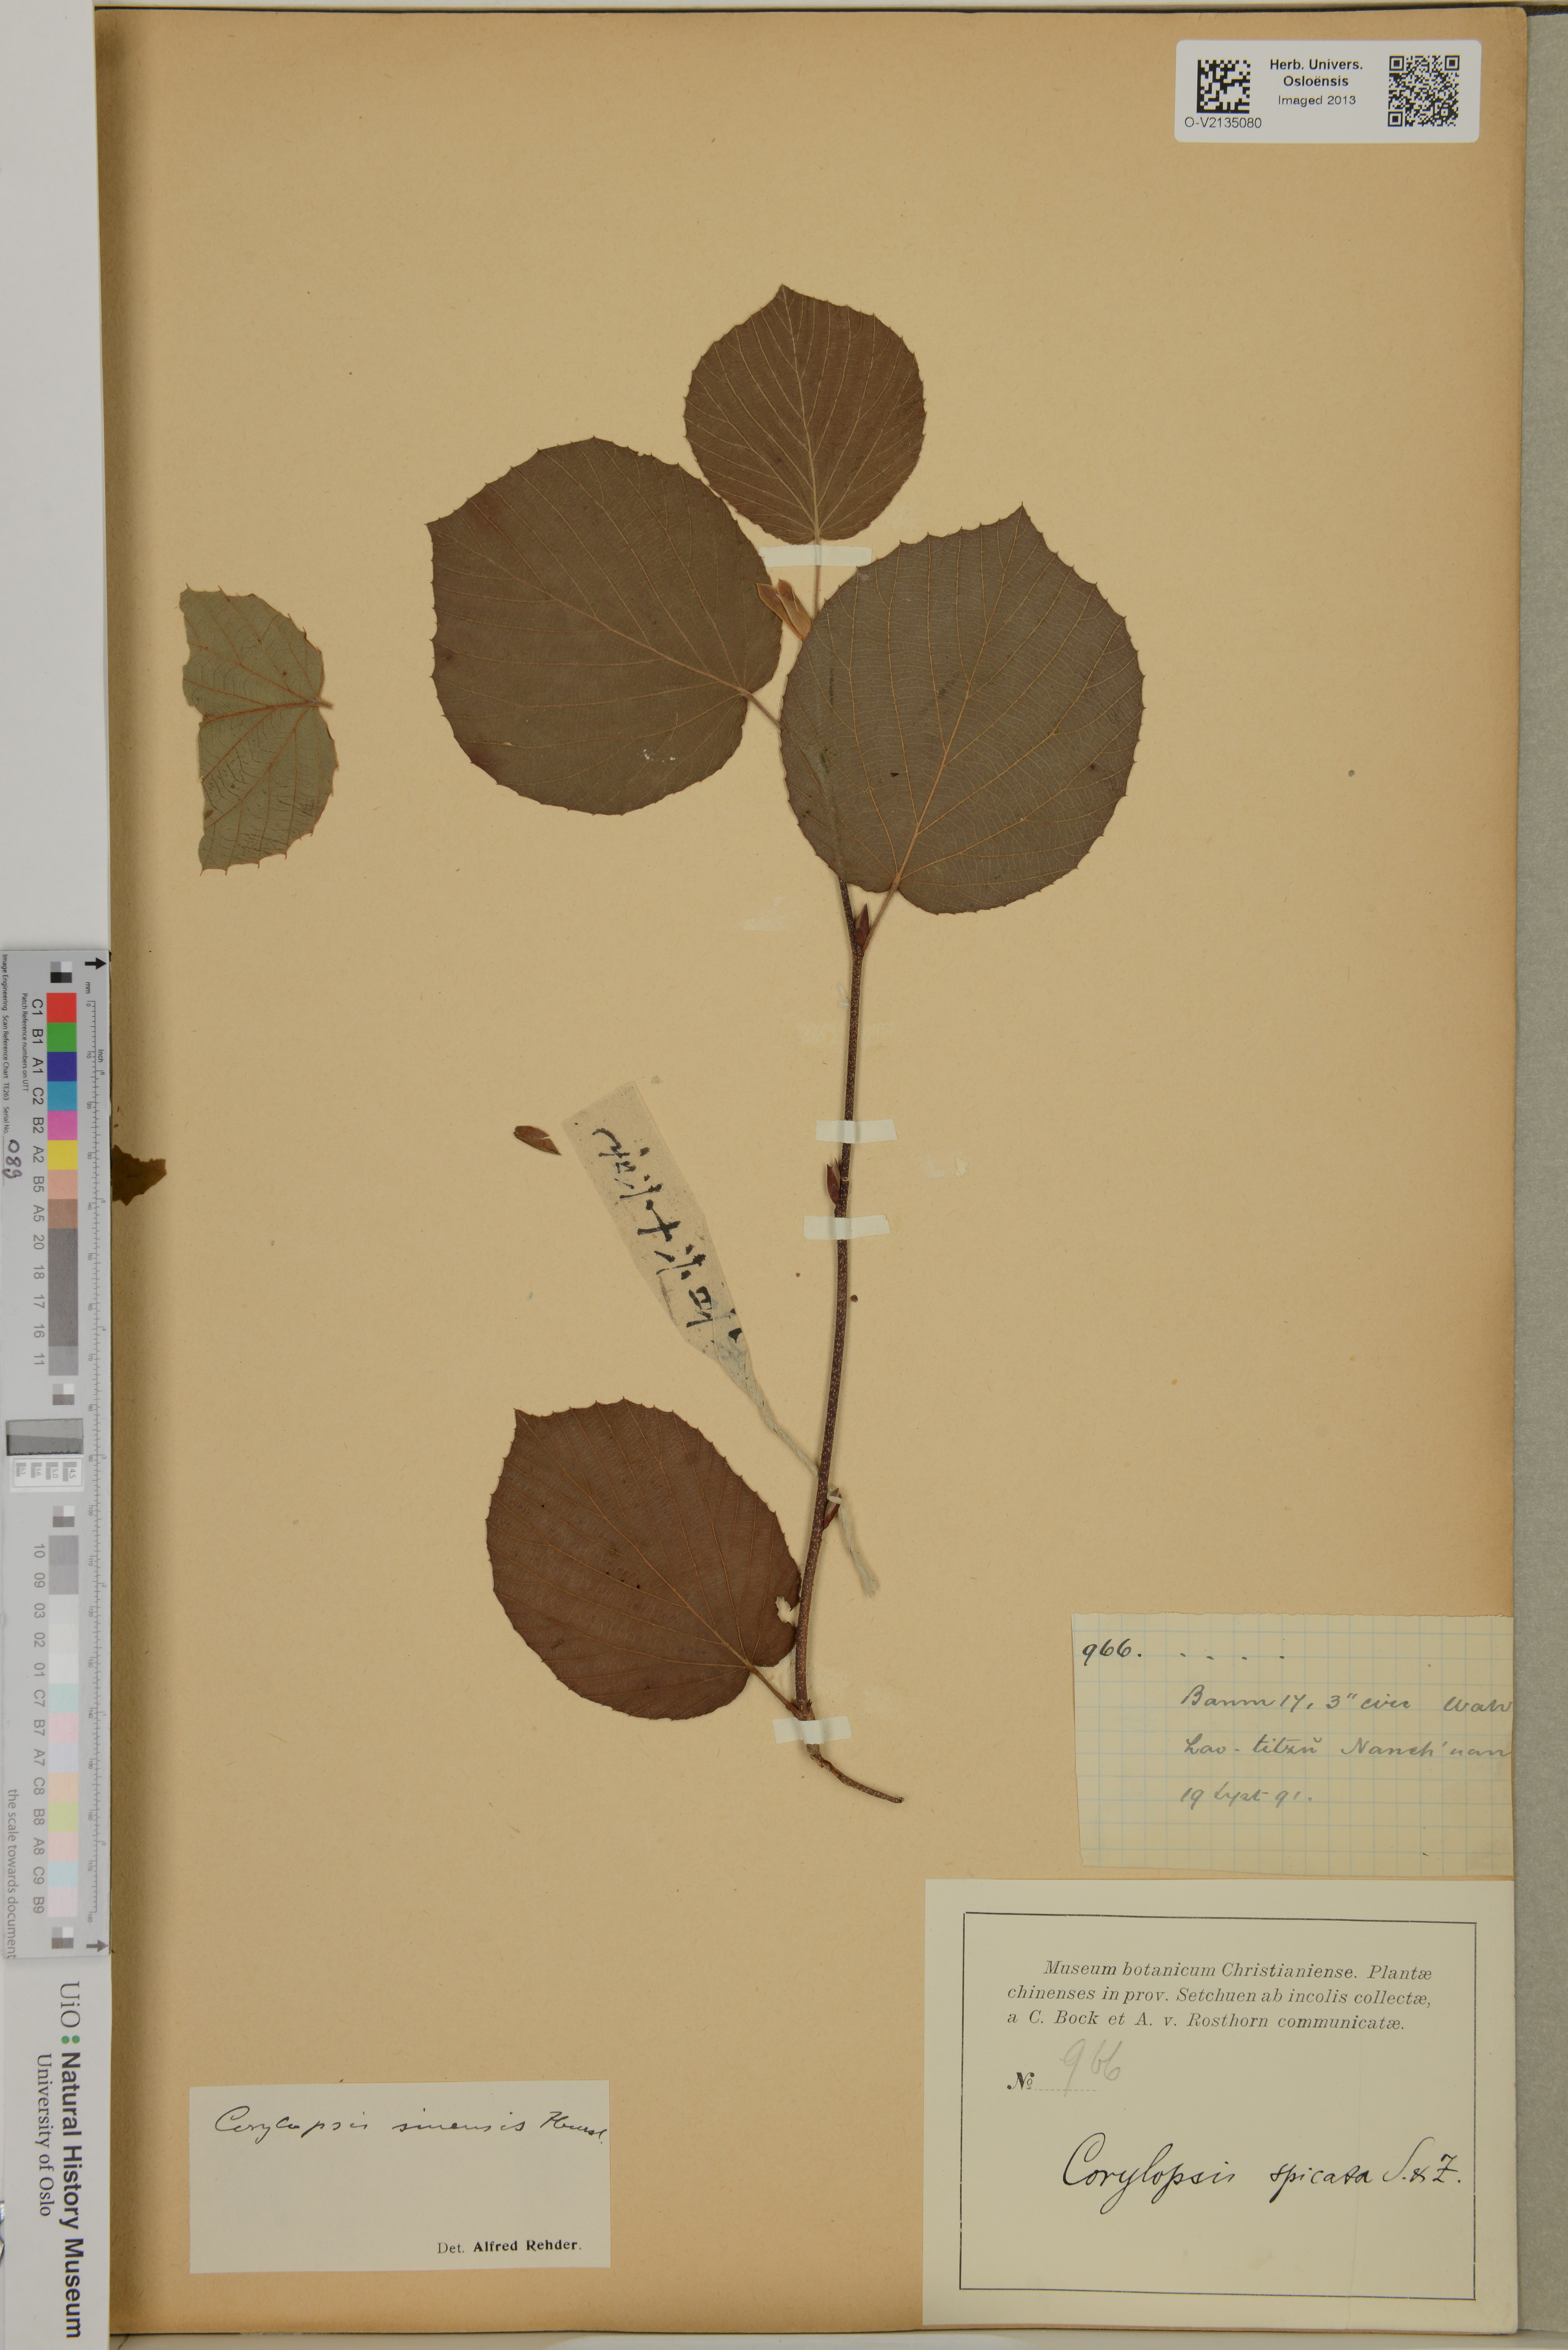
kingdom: Plantae
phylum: Tracheophyta
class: Magnoliopsida
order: Saxifragales
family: Hamamelidaceae
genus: Corylopsis
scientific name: Corylopsis spicata
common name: Spike winter-hazel
